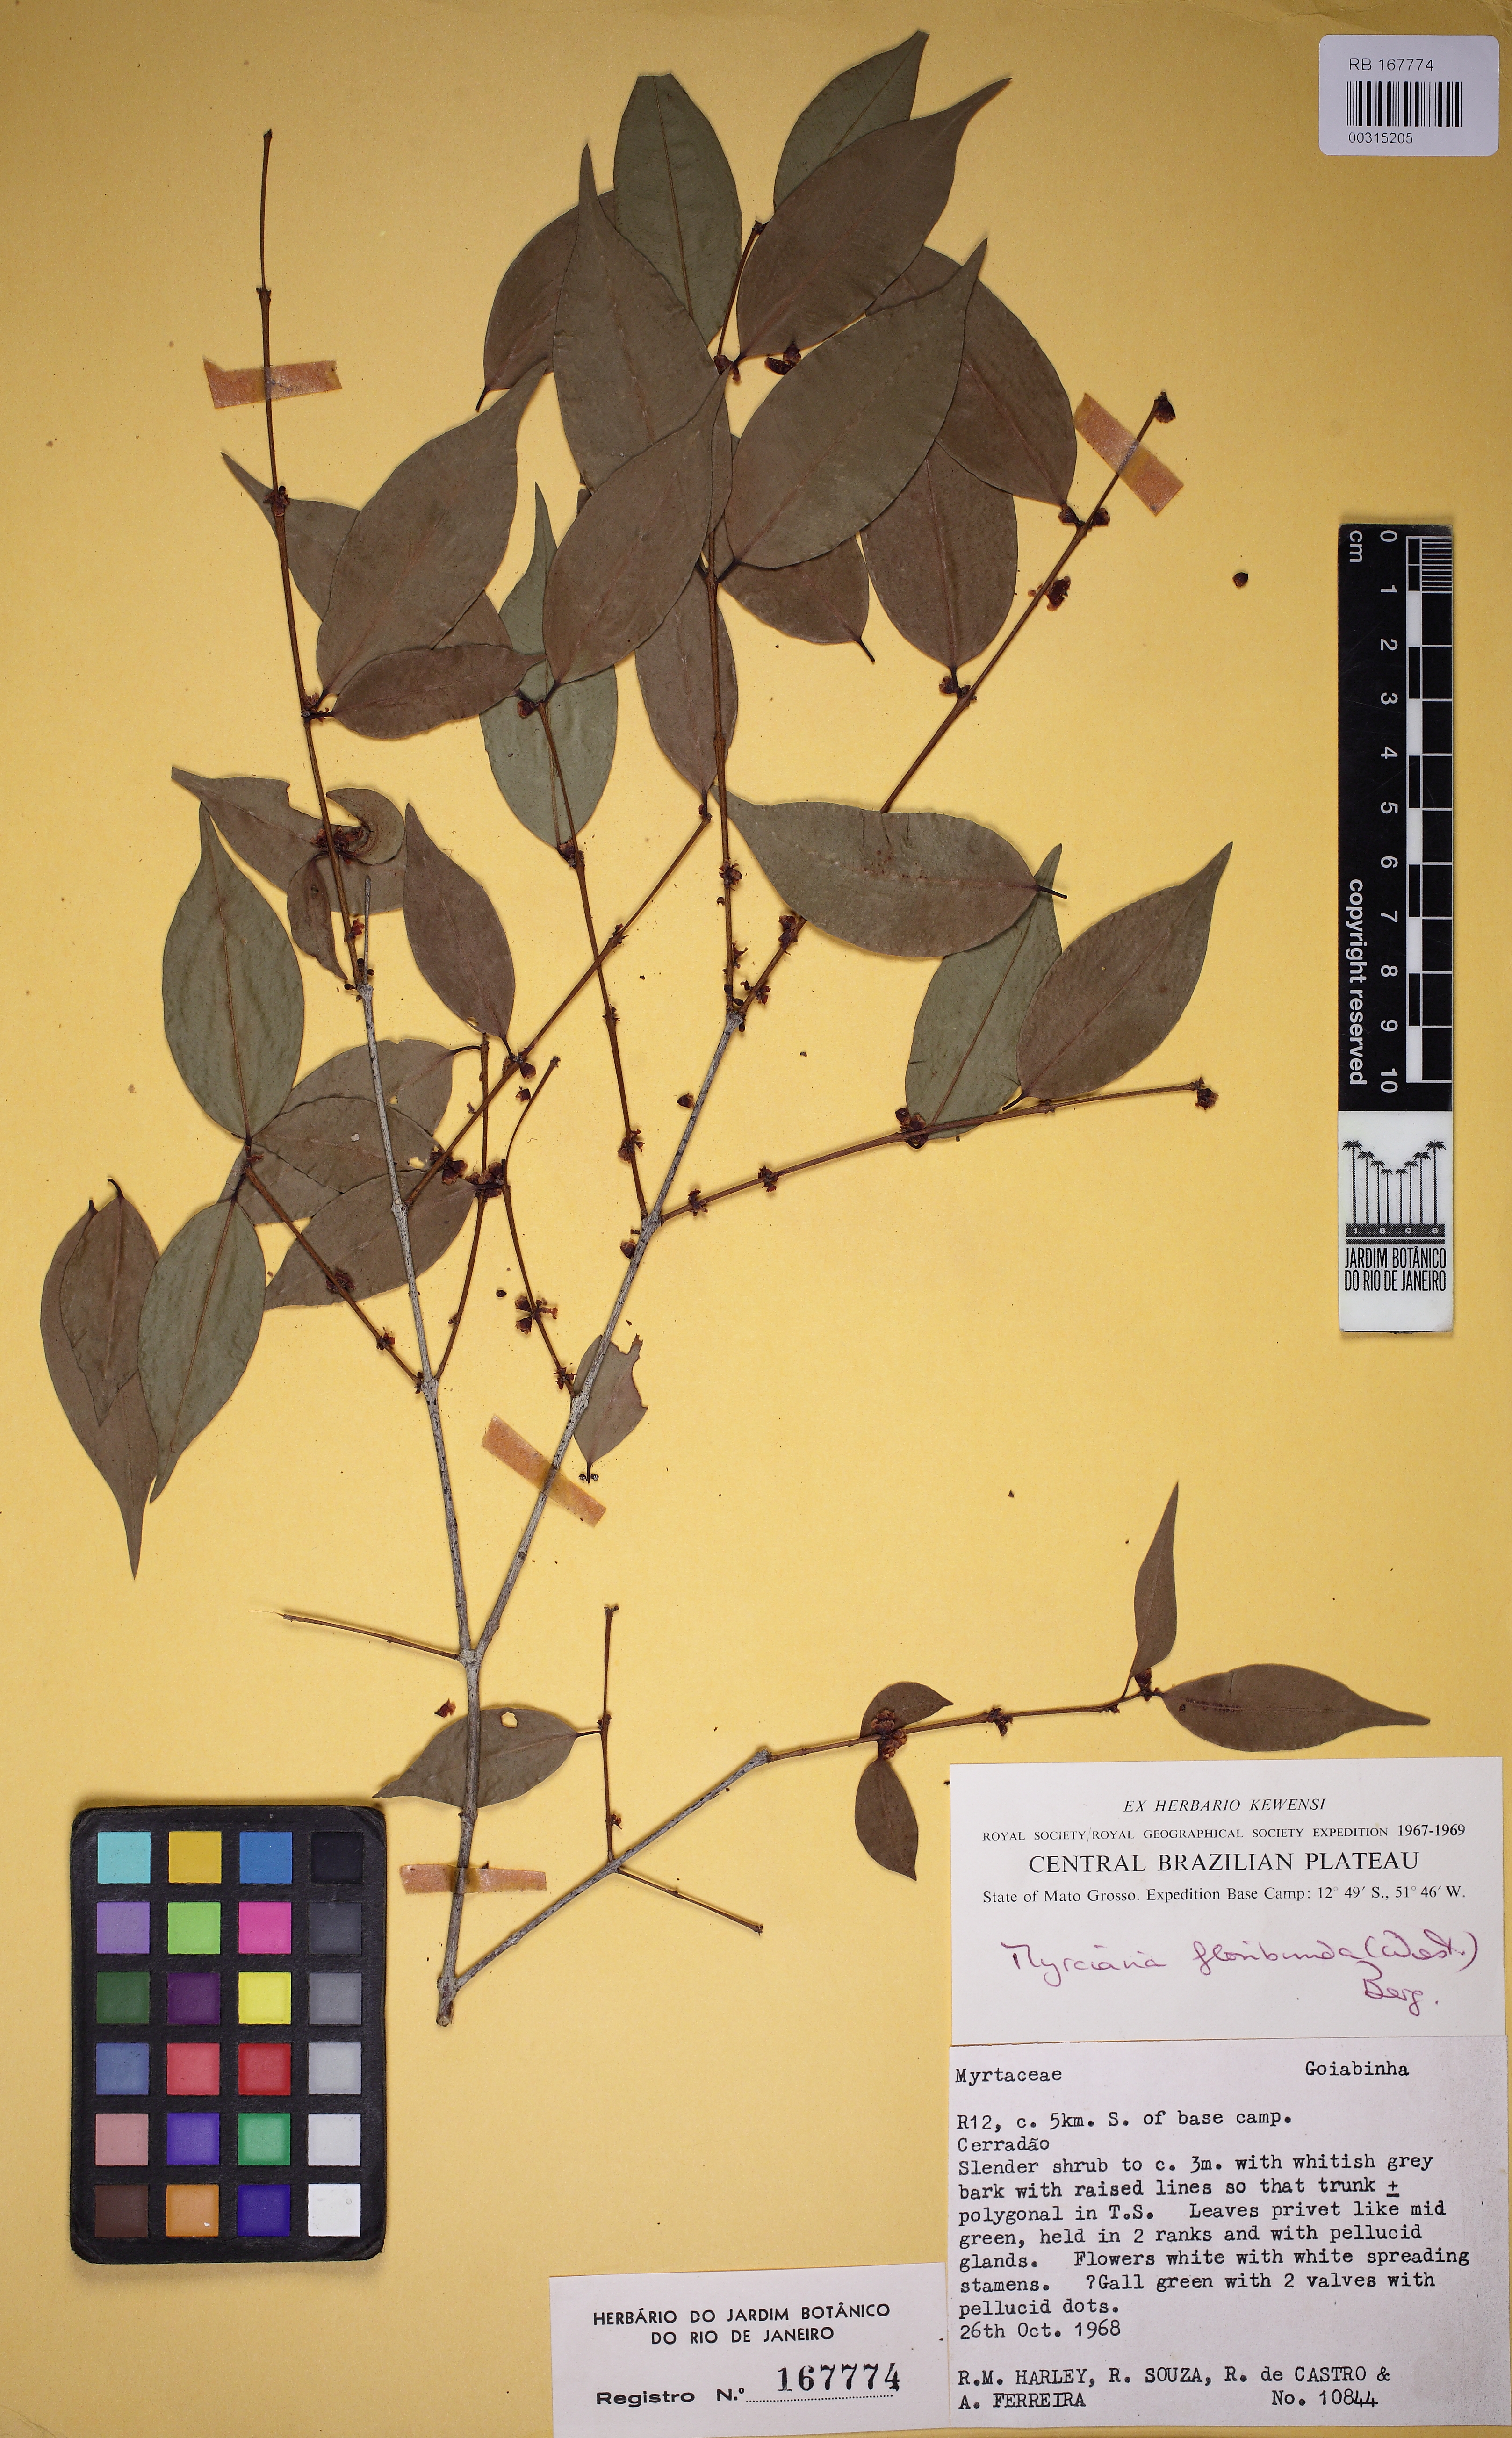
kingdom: Plantae
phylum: Tracheophyta
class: Magnoliopsida
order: Myrtales
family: Myrtaceae
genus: Myrciaria
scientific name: Myrciaria floribunda
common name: Guavaberry
